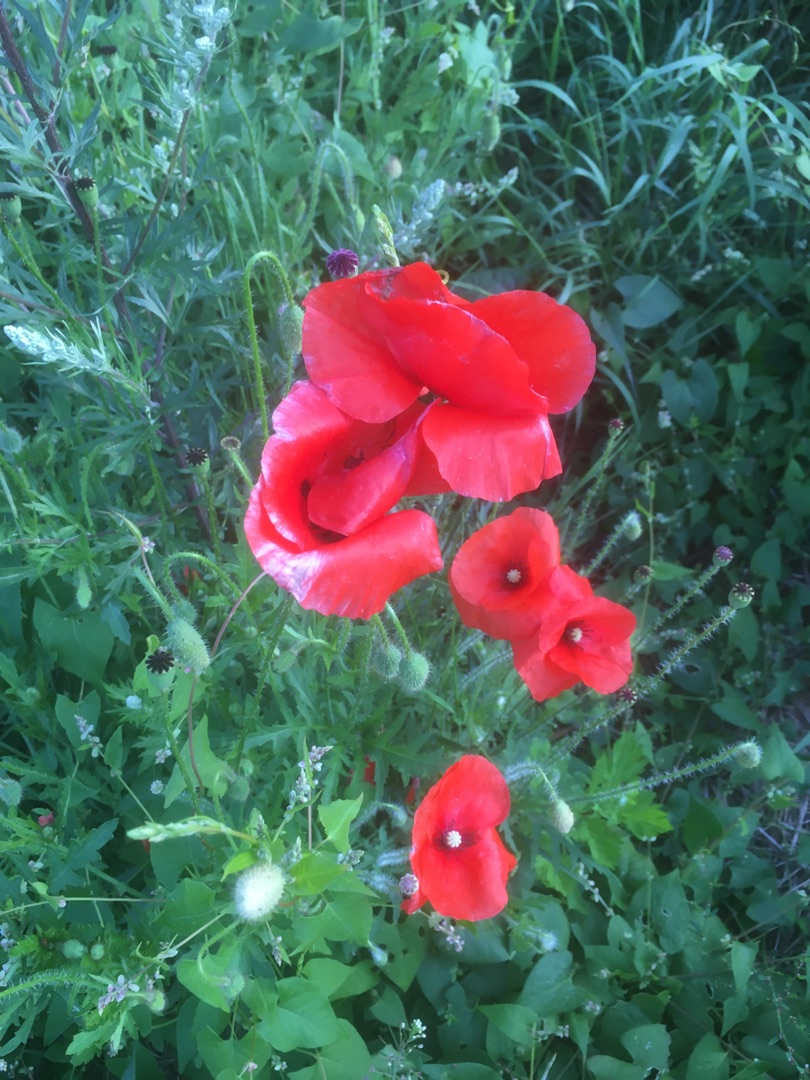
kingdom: Plantae
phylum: Tracheophyta
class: Magnoliopsida
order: Ranunculales
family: Papaveraceae
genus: Papaver
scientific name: Papaver rhoeas
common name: Korn-valmue
